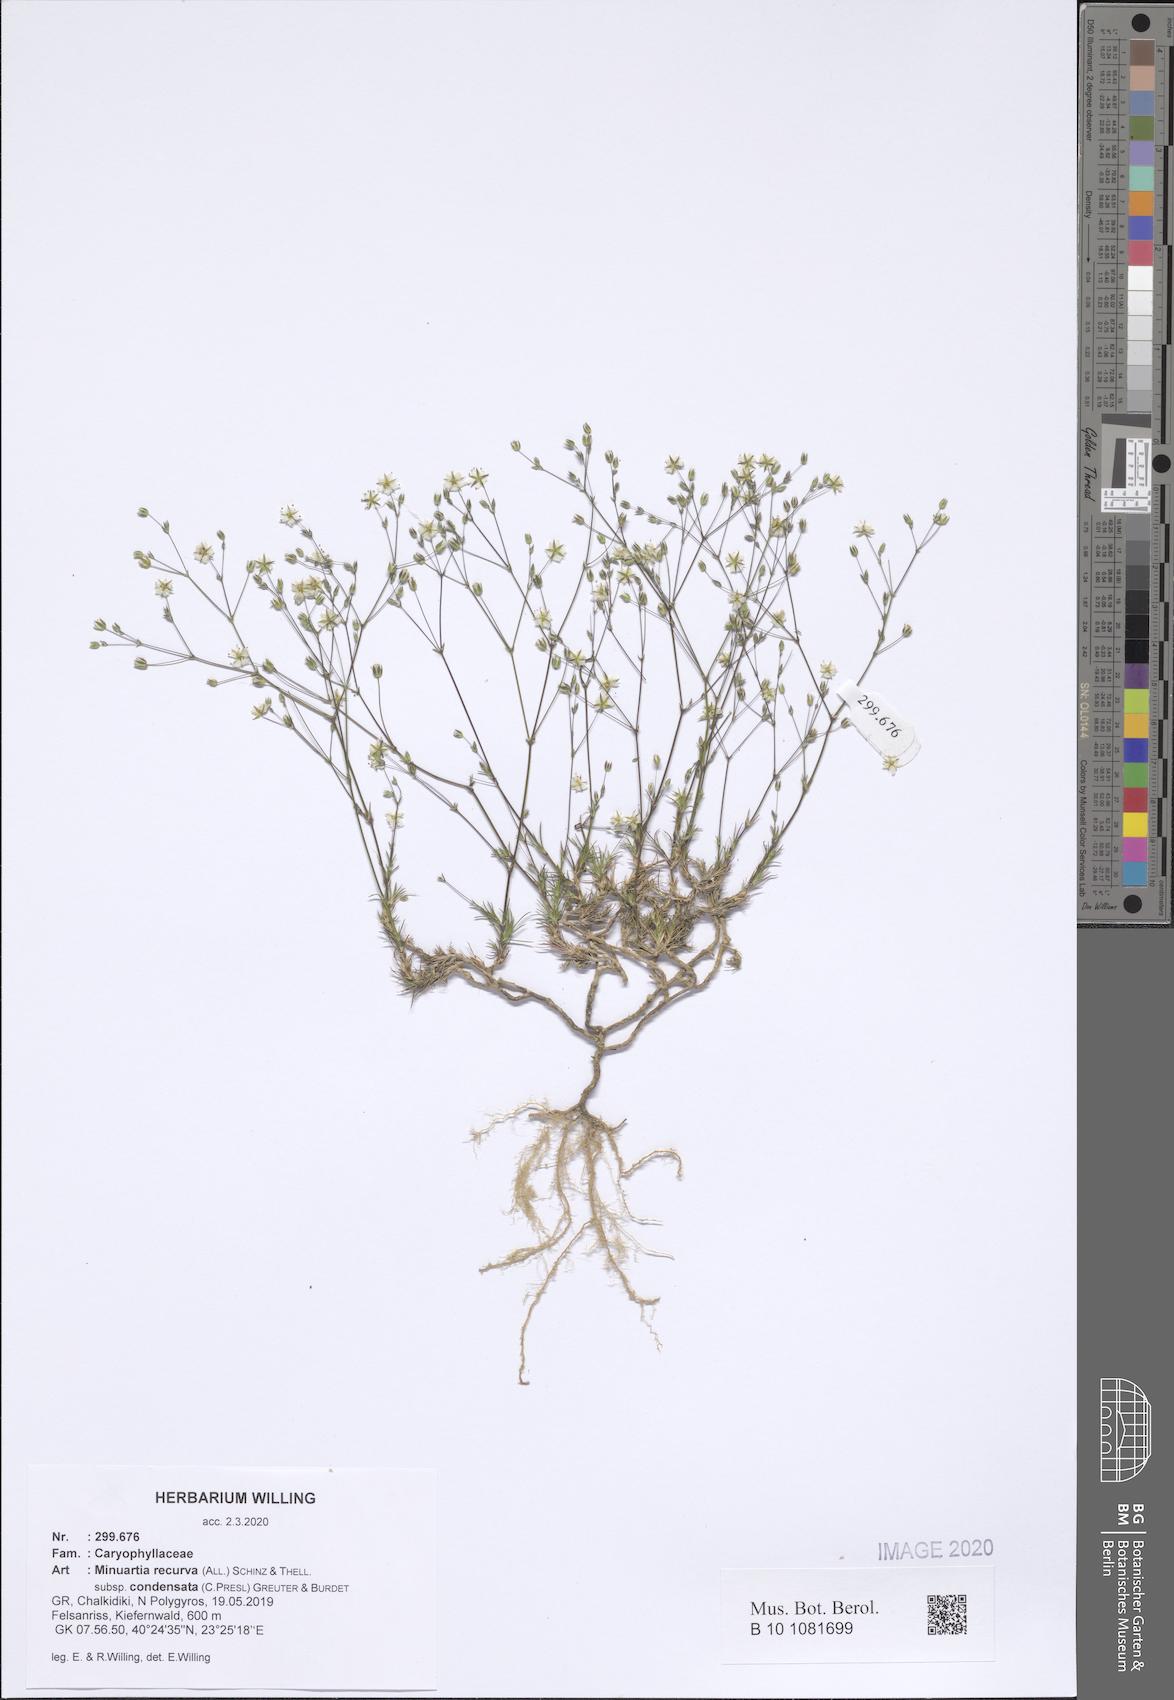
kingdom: Plantae
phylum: Tracheophyta
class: Magnoliopsida
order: Caryophyllales
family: Caryophyllaceae
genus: Minuartia
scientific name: Minuartia recurva
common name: Recurved sandwort
